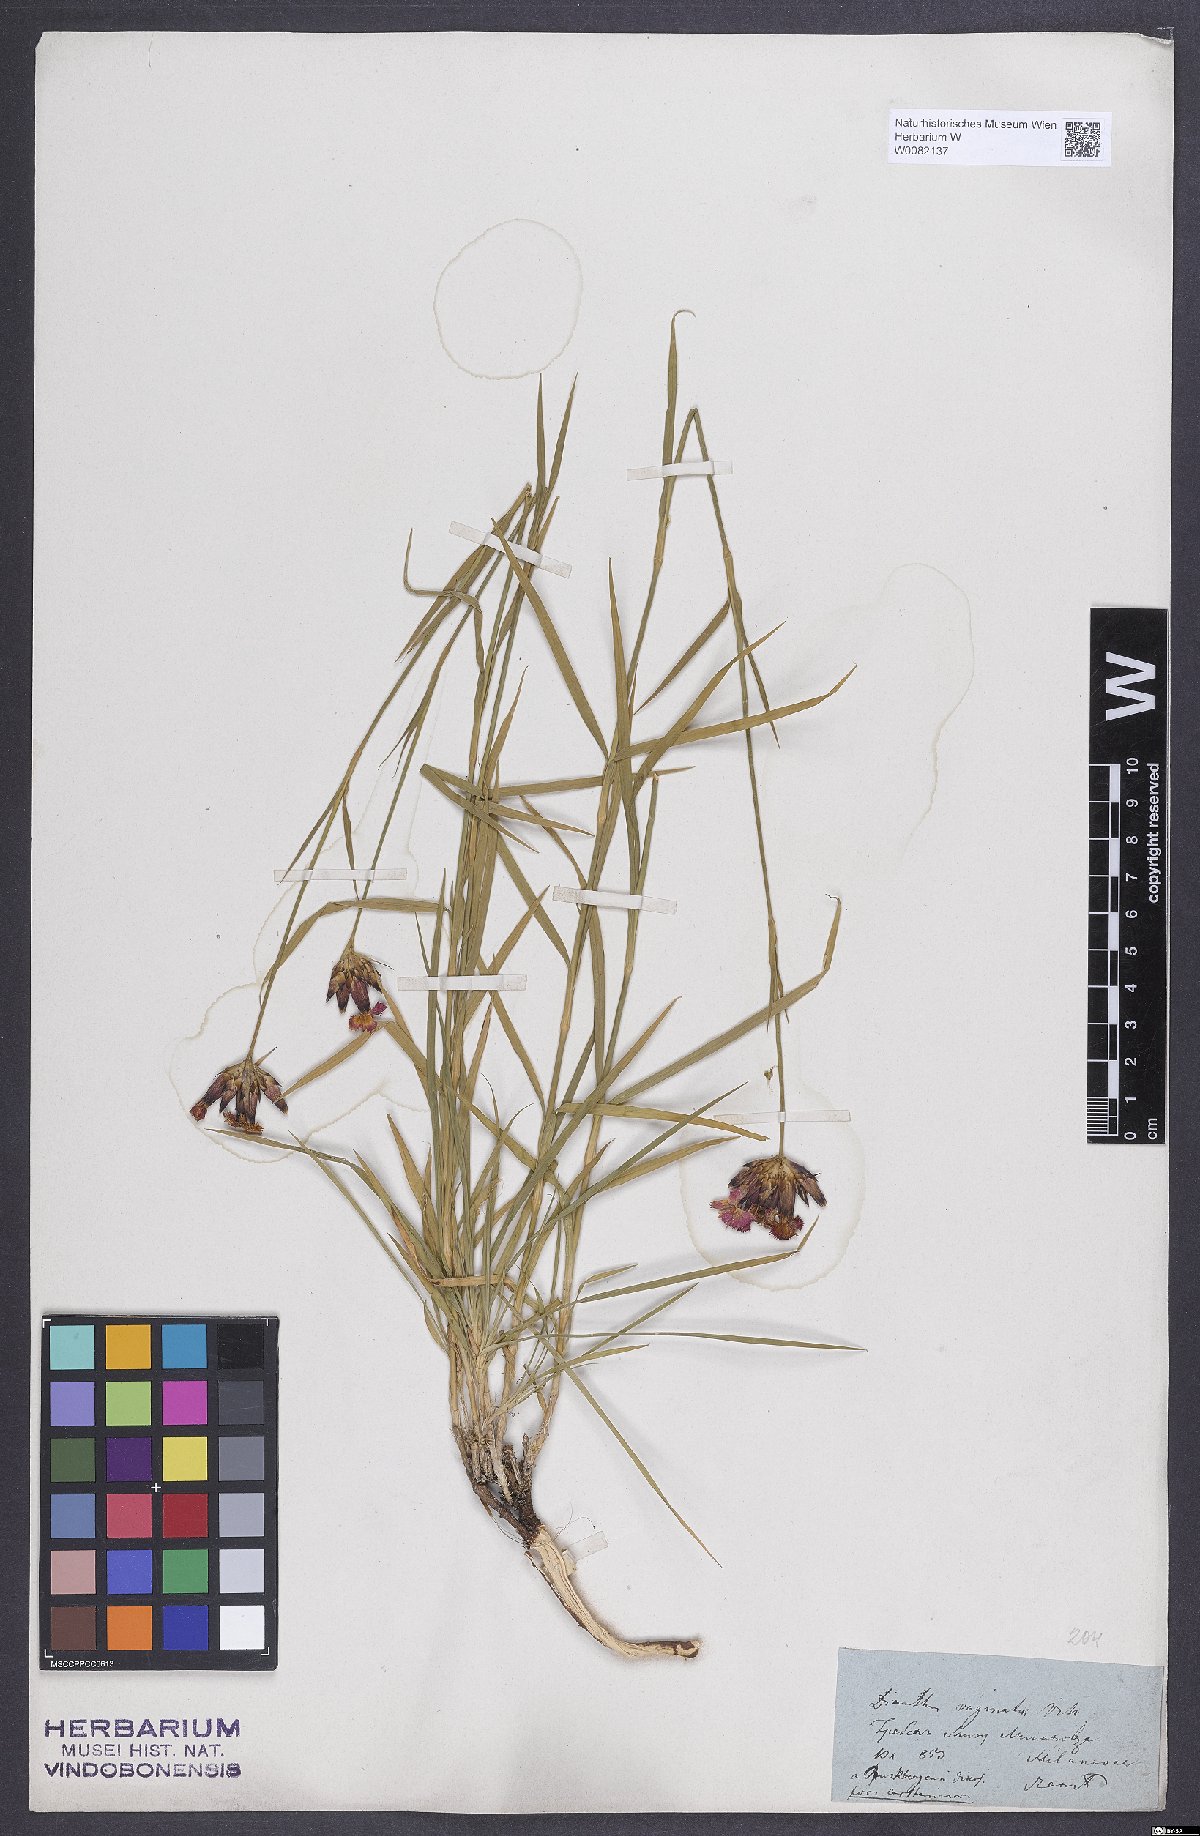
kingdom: Plantae
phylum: Tracheophyta
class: Magnoliopsida
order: Caryophyllales
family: Caryophyllaceae
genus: Dianthus
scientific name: Dianthus carthusianorum
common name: Carthusian pink
